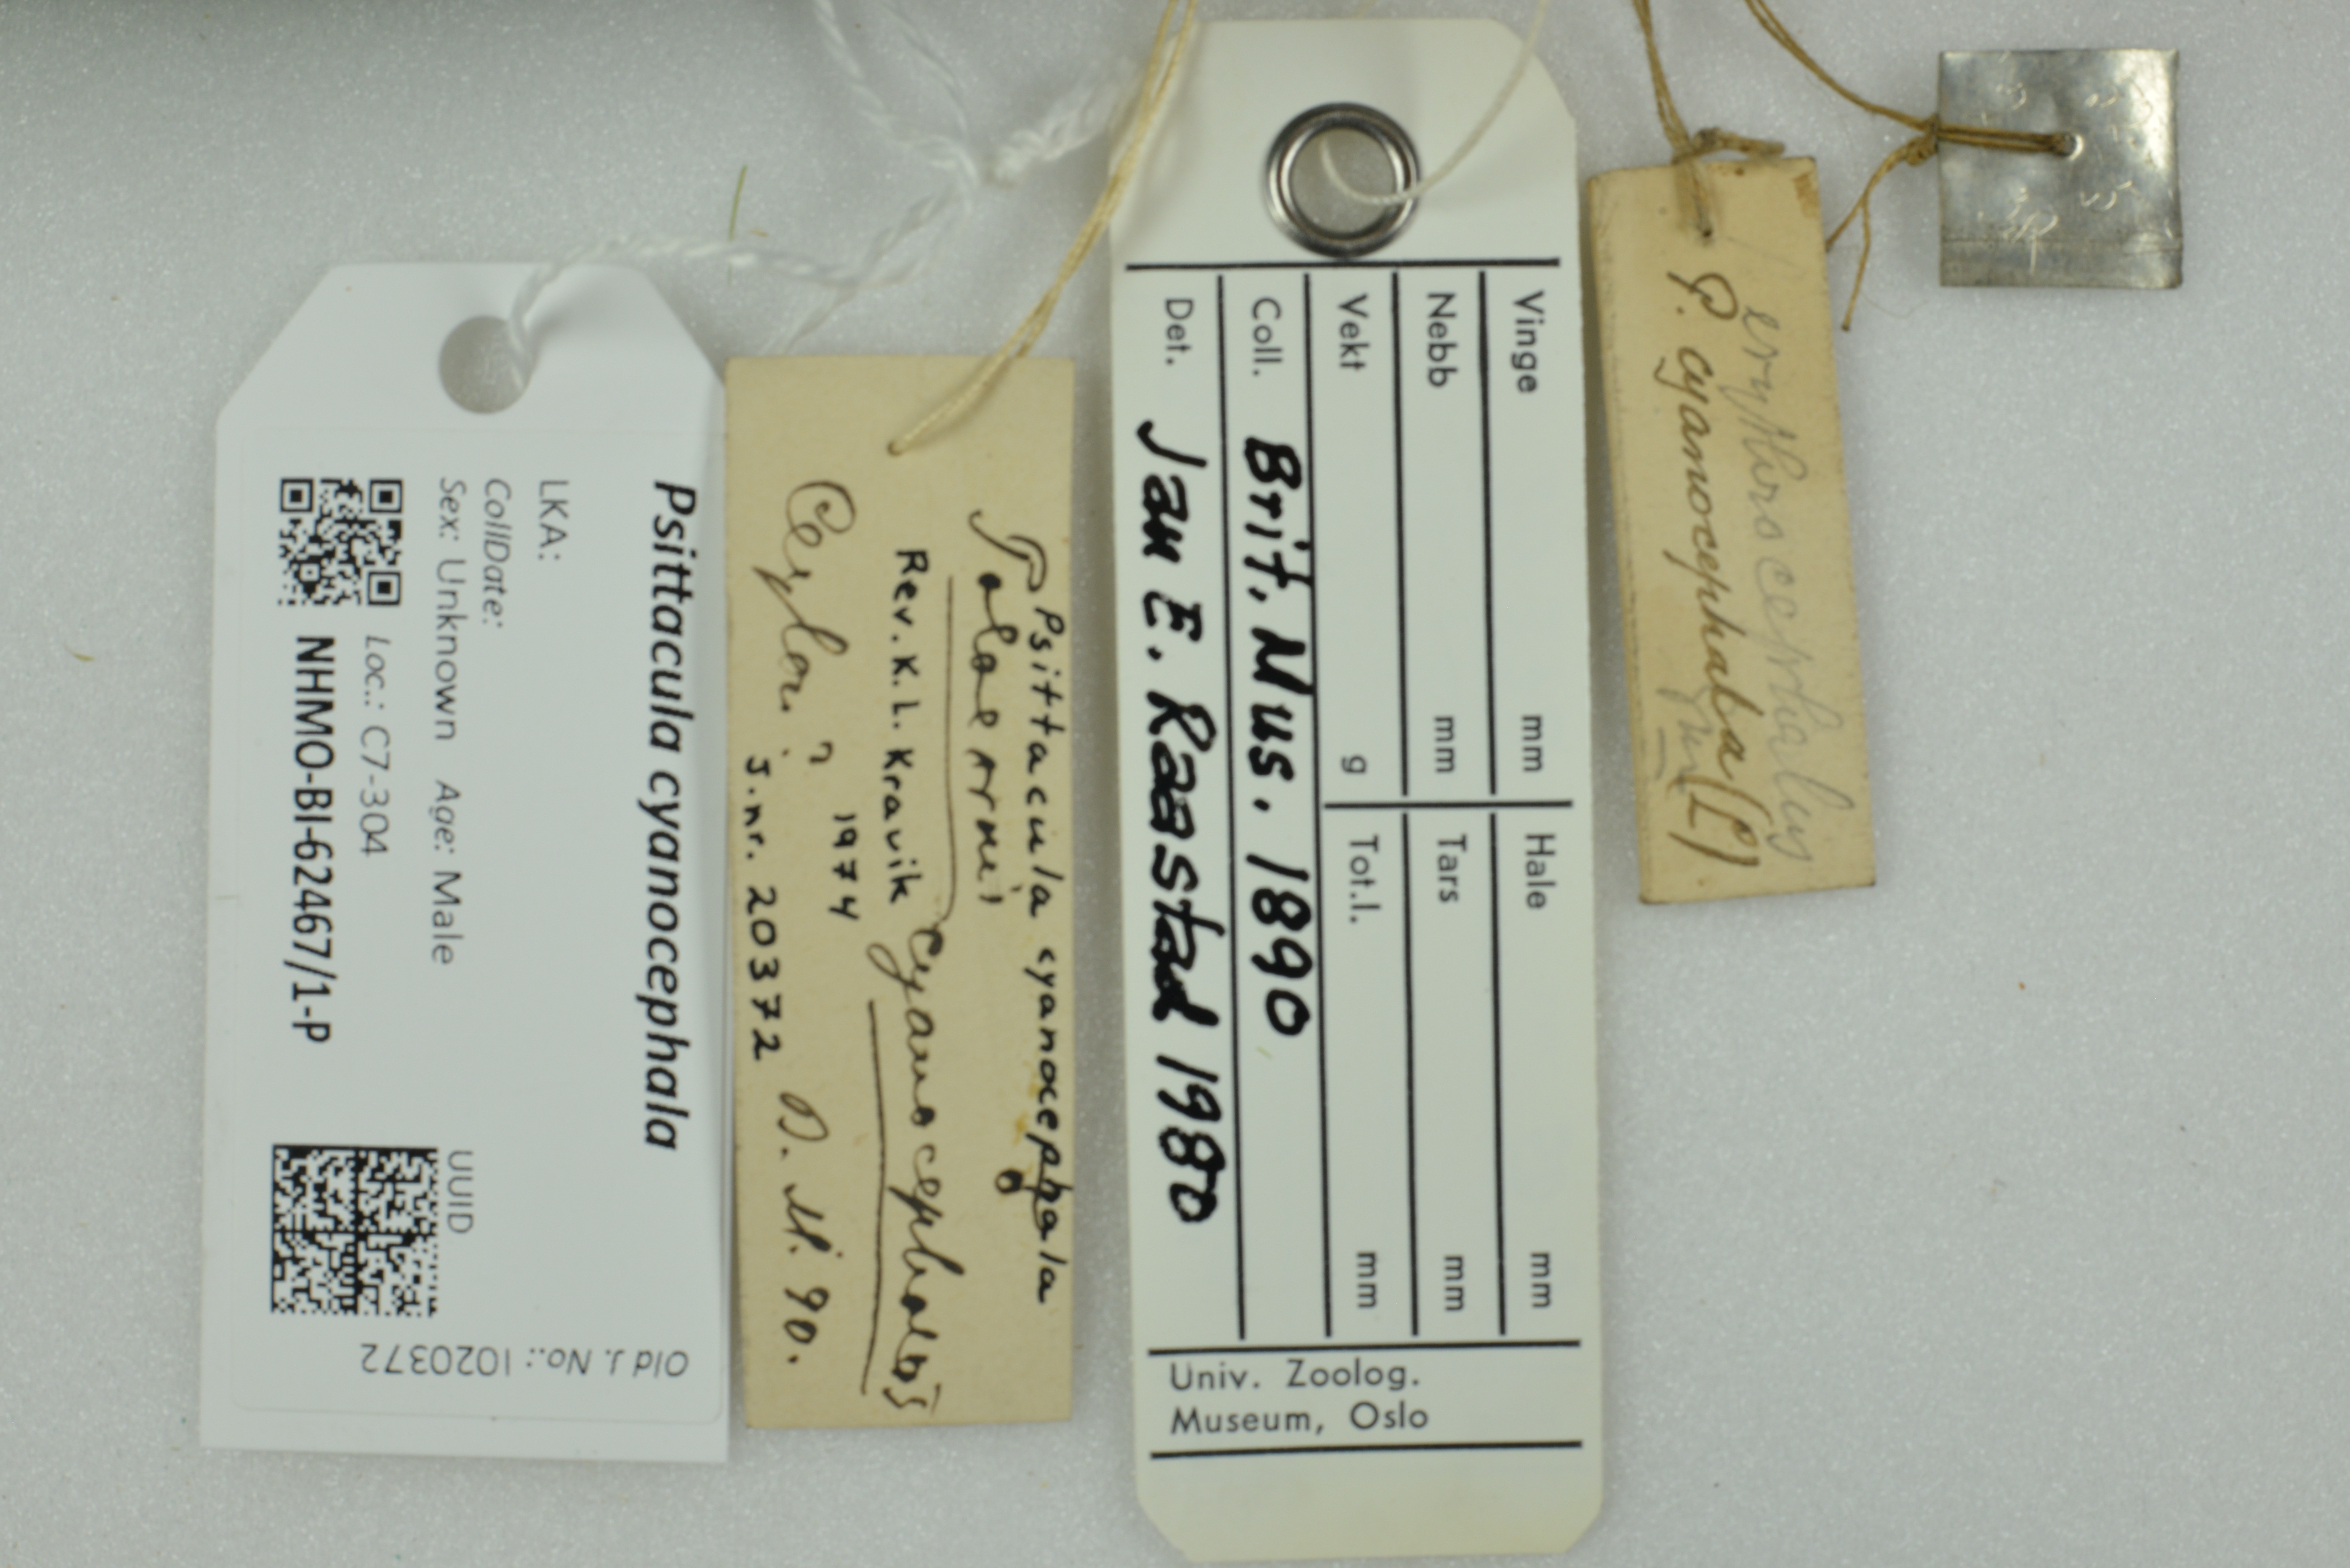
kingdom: Animalia
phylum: Chordata
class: Aves
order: Psittaciformes
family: Psittacidae
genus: Psittacula
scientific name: Psittacula cyanocephala
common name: Plum-headed parakeet
